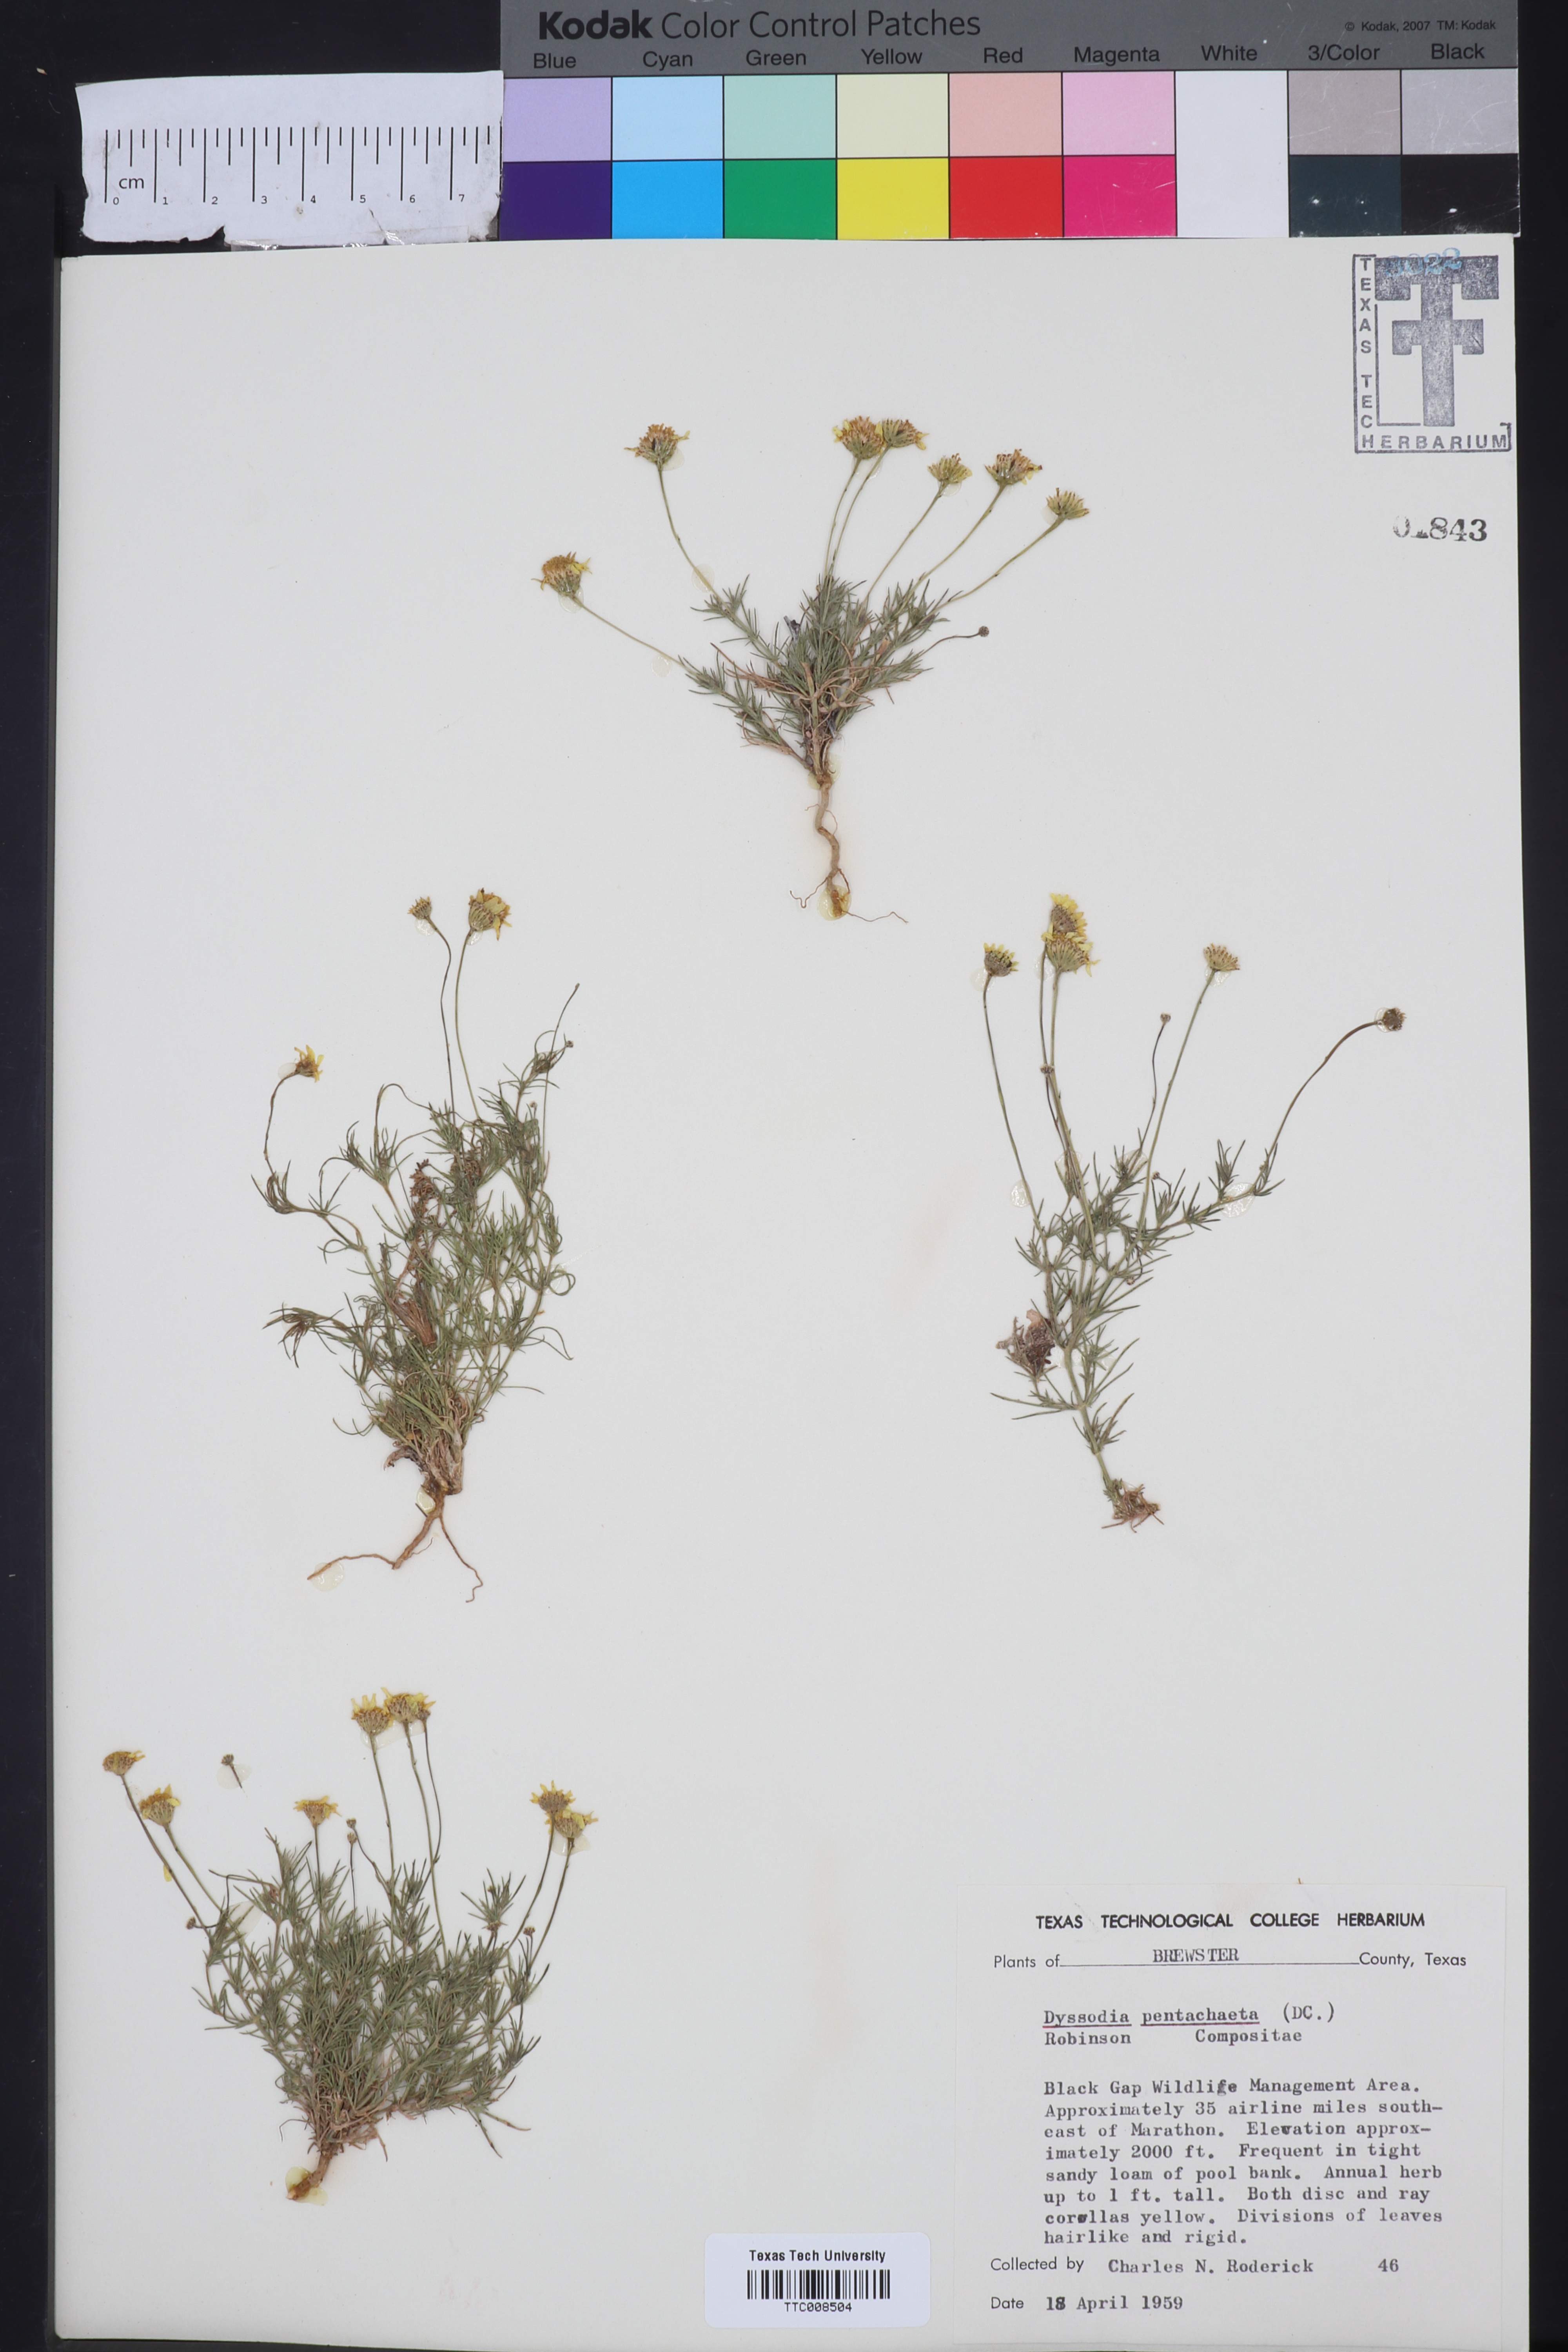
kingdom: Plantae
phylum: Tracheophyta
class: Magnoliopsida
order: Asterales
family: Asteraceae
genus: Thymophylla
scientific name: Thymophylla pentachaeta
